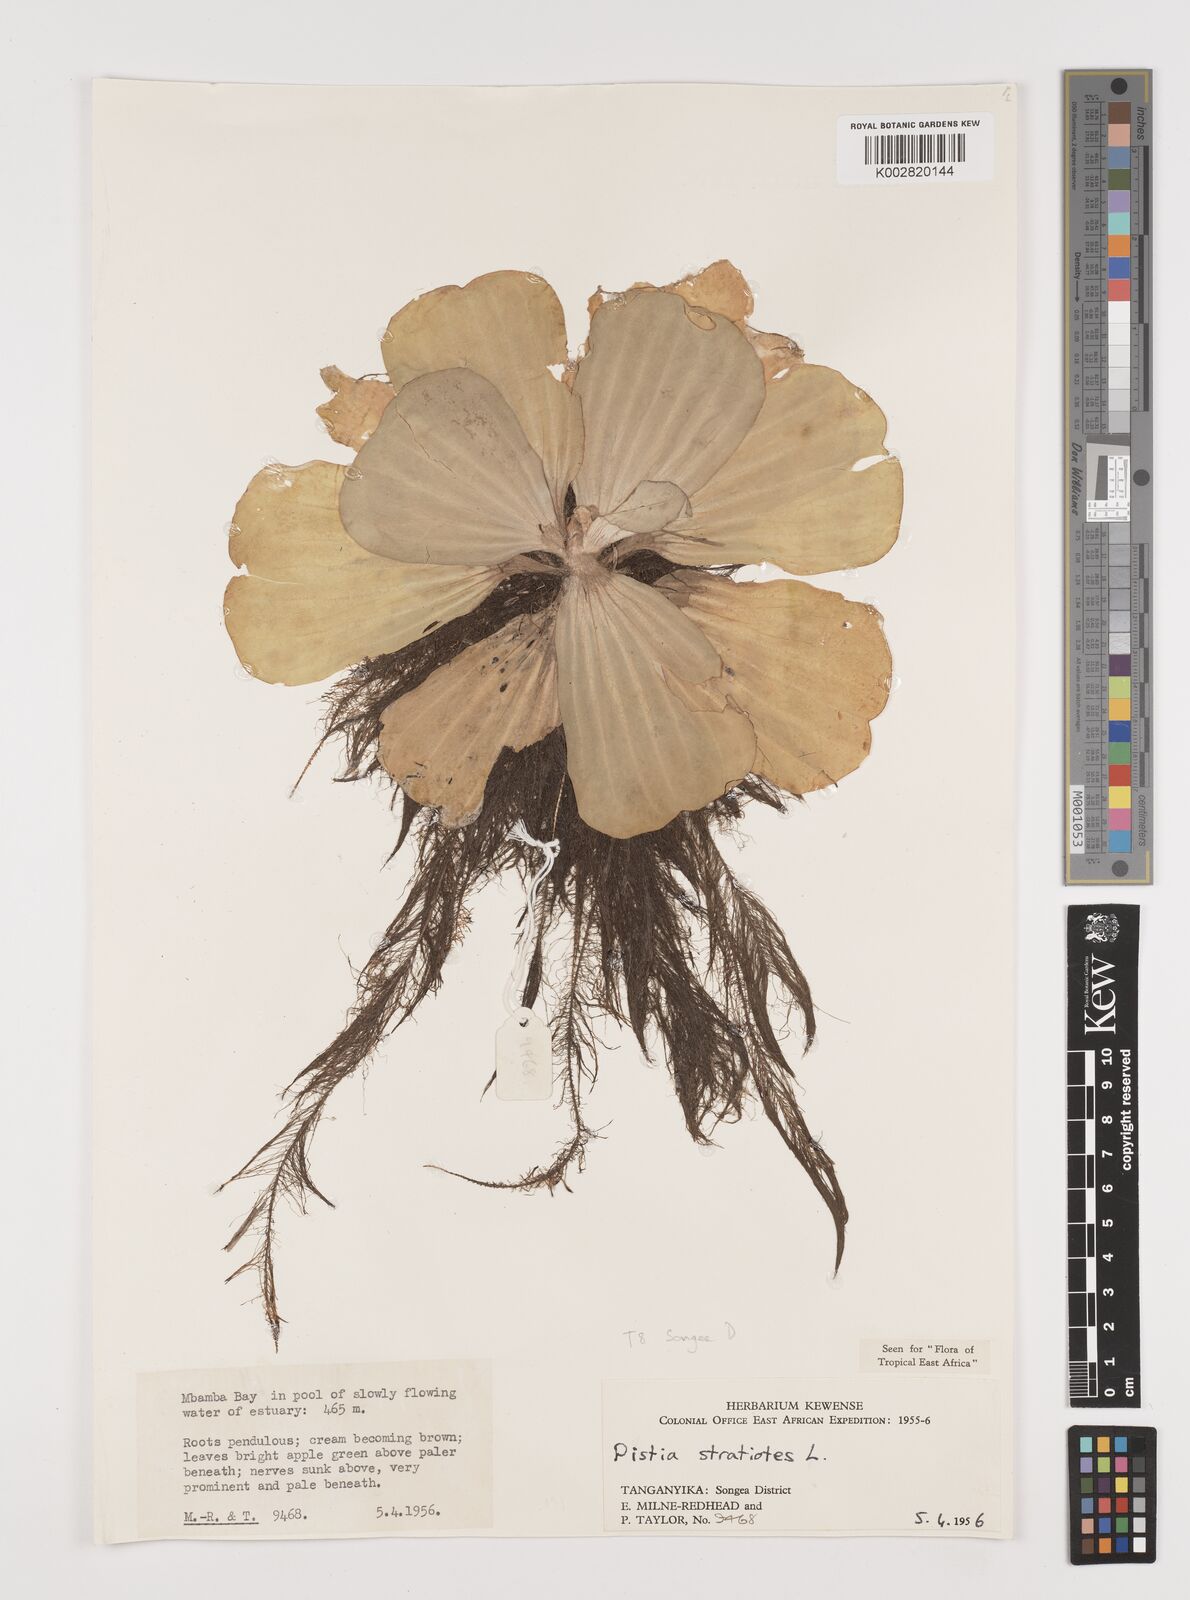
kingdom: Plantae
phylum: Tracheophyta
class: Liliopsida
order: Alismatales
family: Araceae
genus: Pistia
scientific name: Pistia stratiotes
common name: Water lettuce
